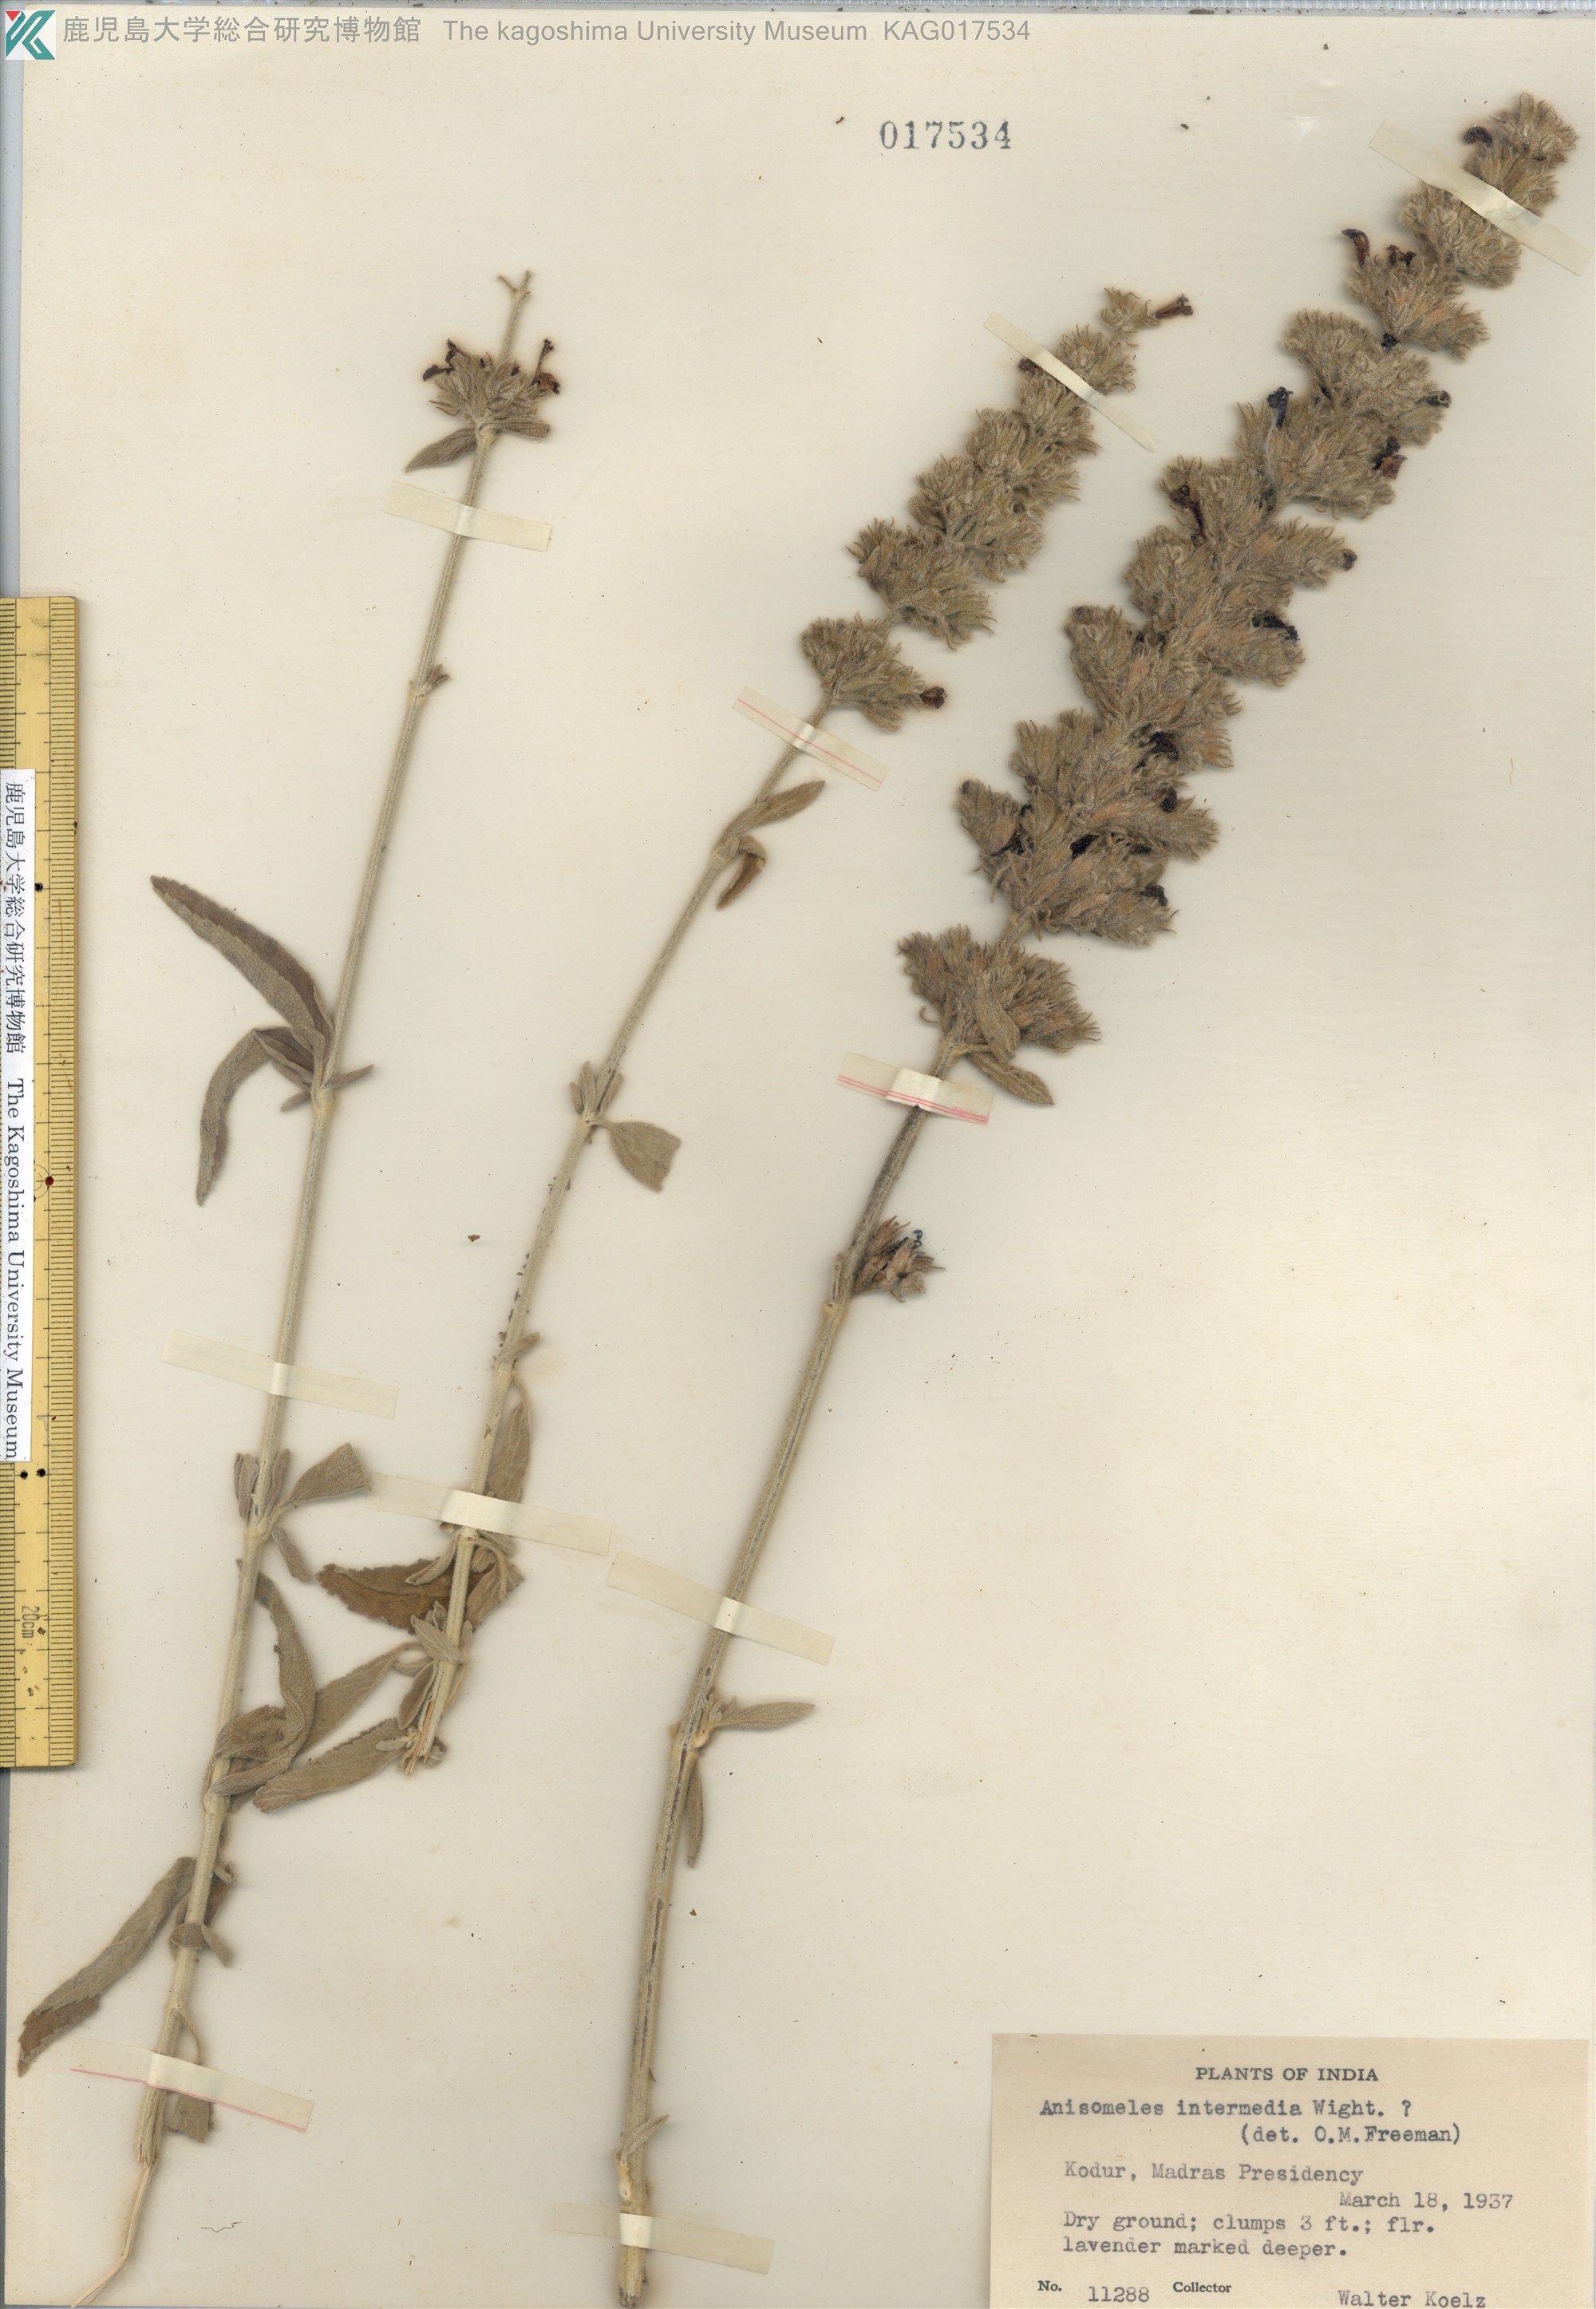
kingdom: Plantae
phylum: Tracheophyta
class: Magnoliopsida
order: Lamiales
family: Lamiaceae
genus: Anisomeles
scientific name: Anisomeles intermedia
